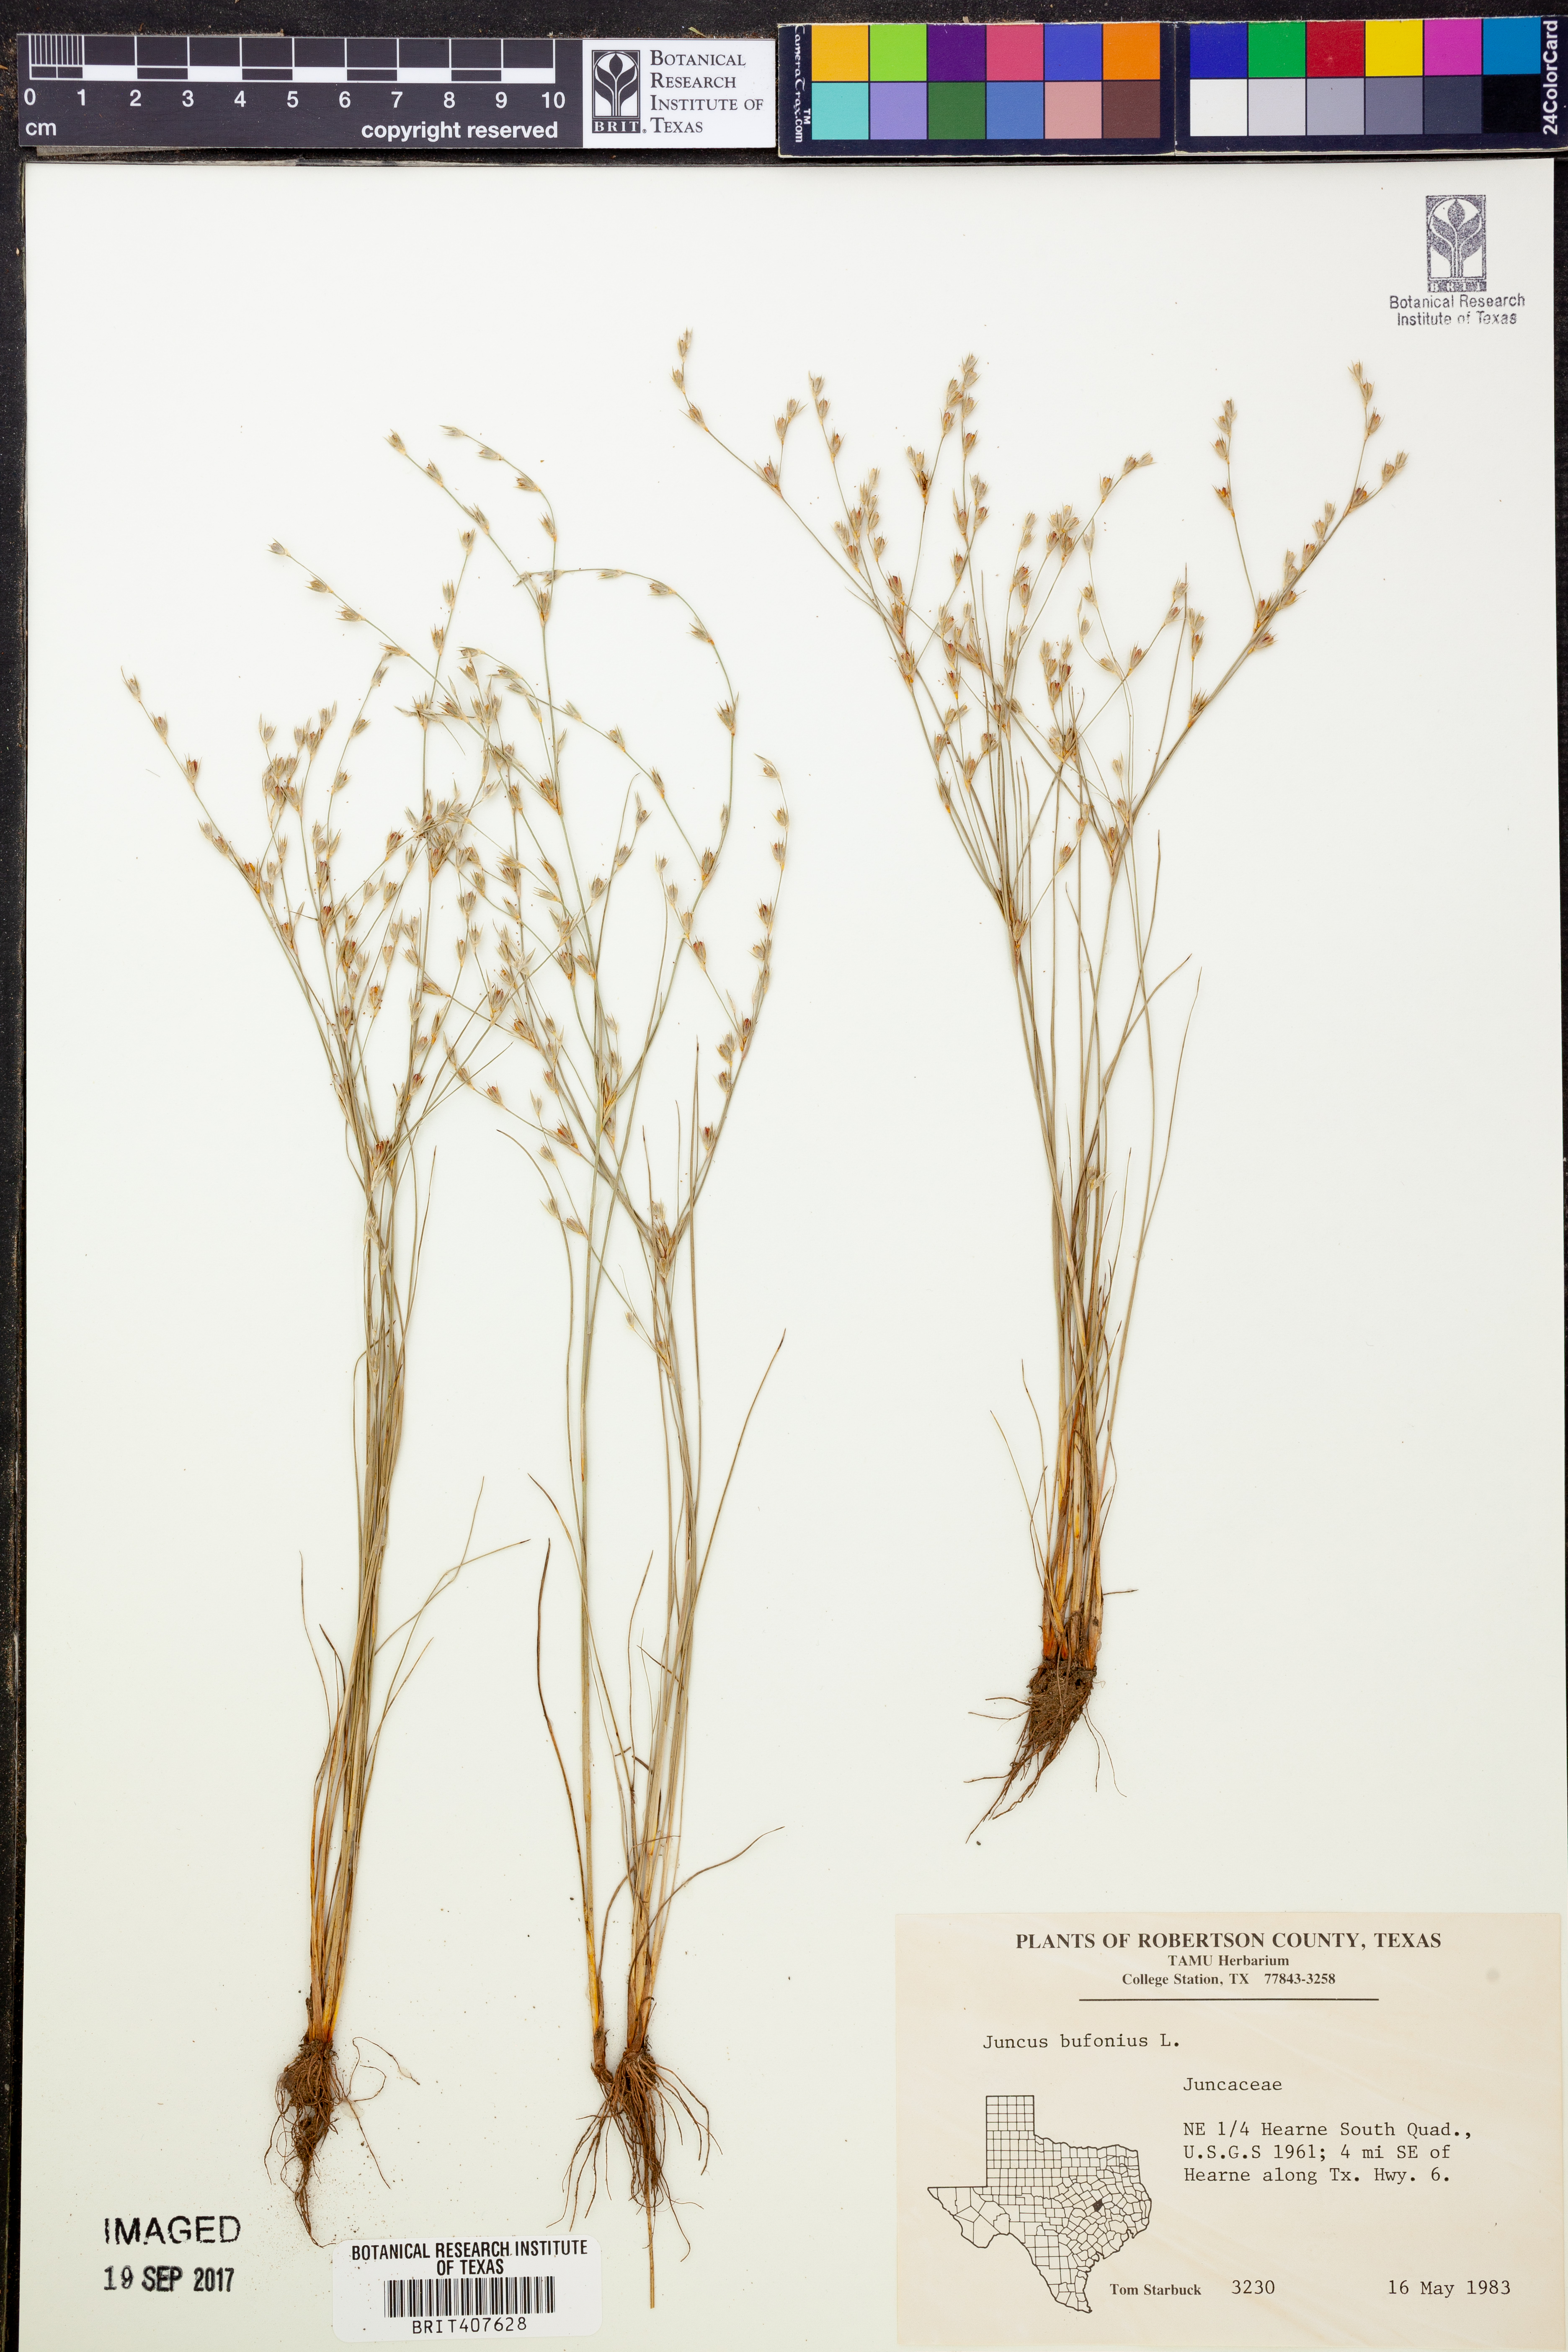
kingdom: Plantae
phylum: Tracheophyta
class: Liliopsida
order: Poales
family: Juncaceae
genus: Juncus
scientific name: Juncus bufonius
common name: Toad rush
